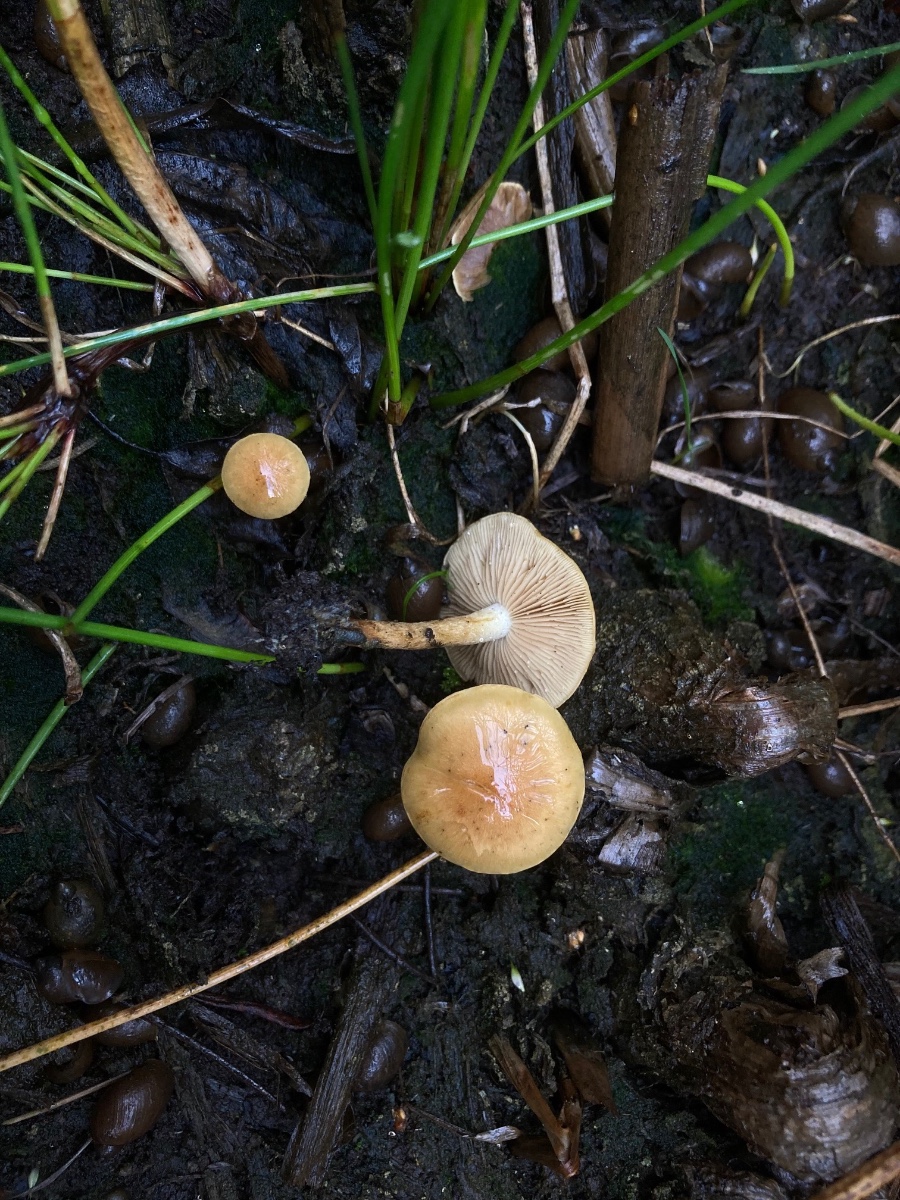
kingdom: Fungi
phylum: Basidiomycota
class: Agaricomycetes
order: Agaricales
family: Strophariaceae
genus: Pholiota
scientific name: Pholiota conissans
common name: pile-skælhat
